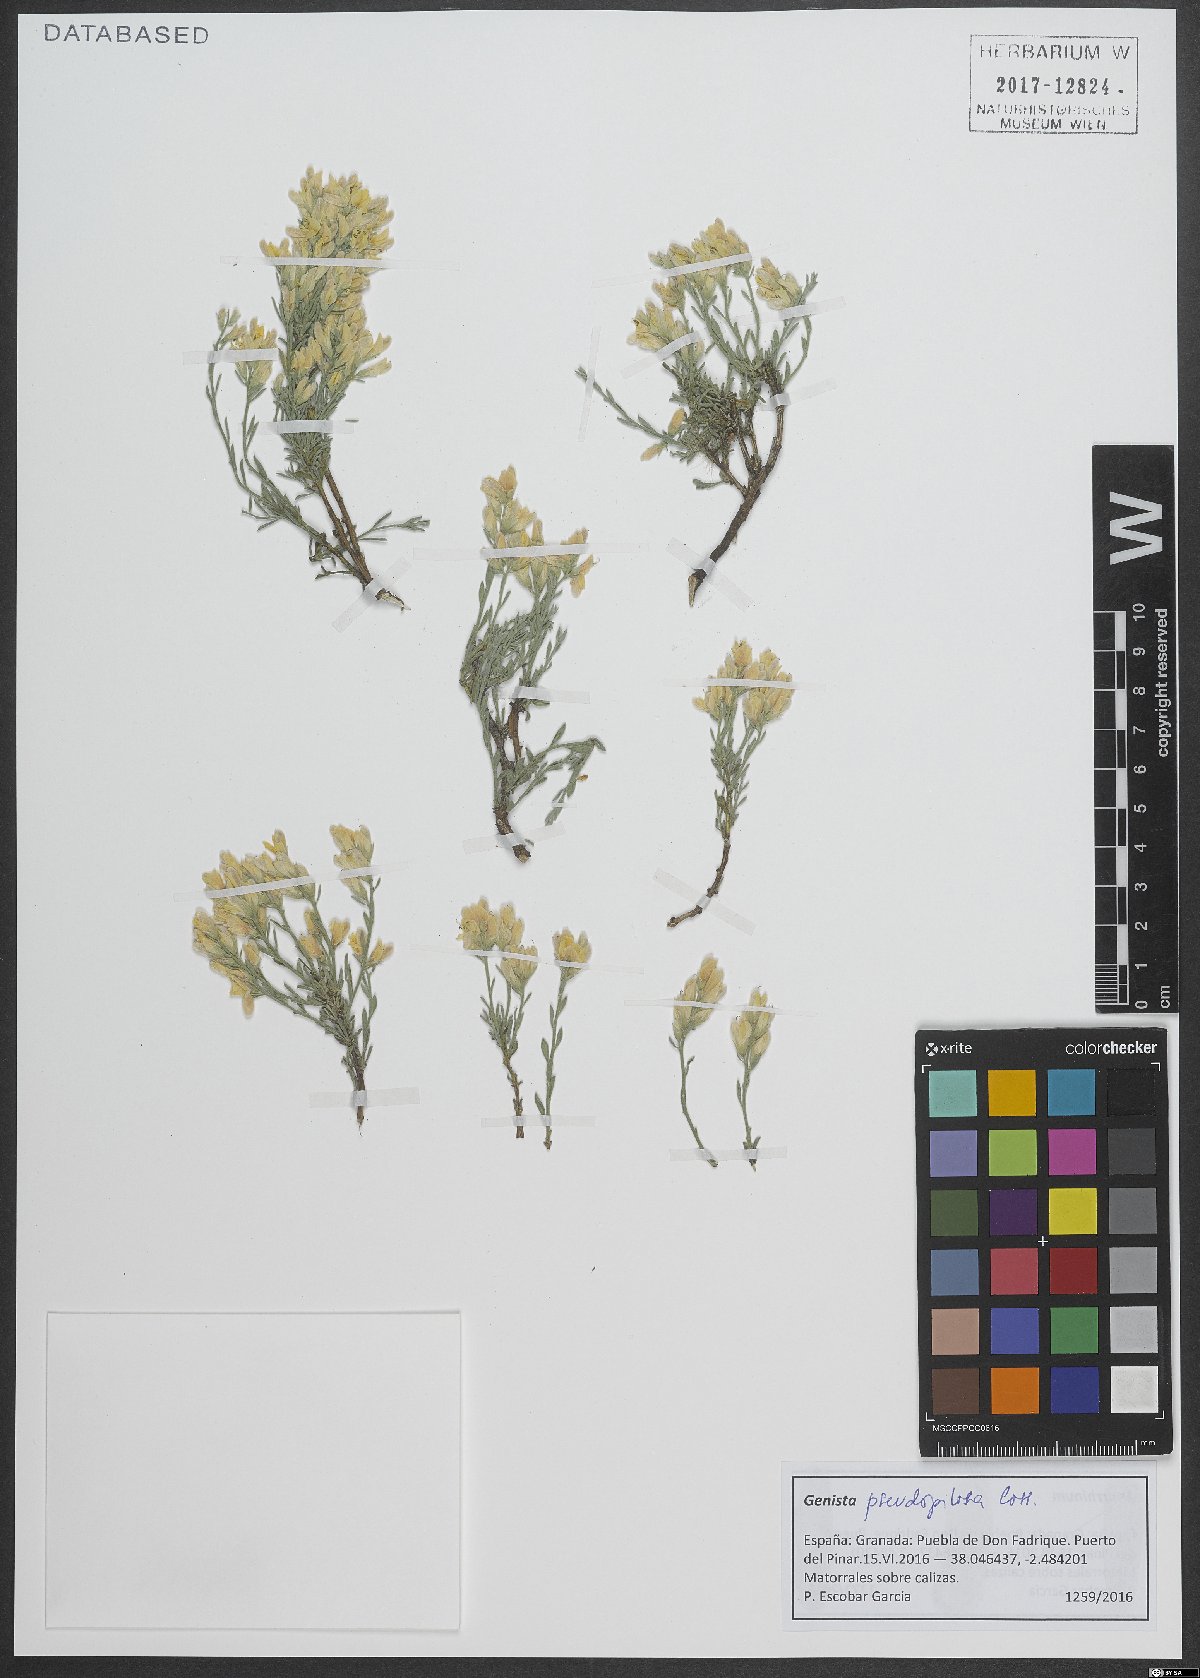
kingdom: Plantae
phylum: Tracheophyta
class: Magnoliopsida
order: Fabales
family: Fabaceae
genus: Genista
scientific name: Genista pseudopilosa
